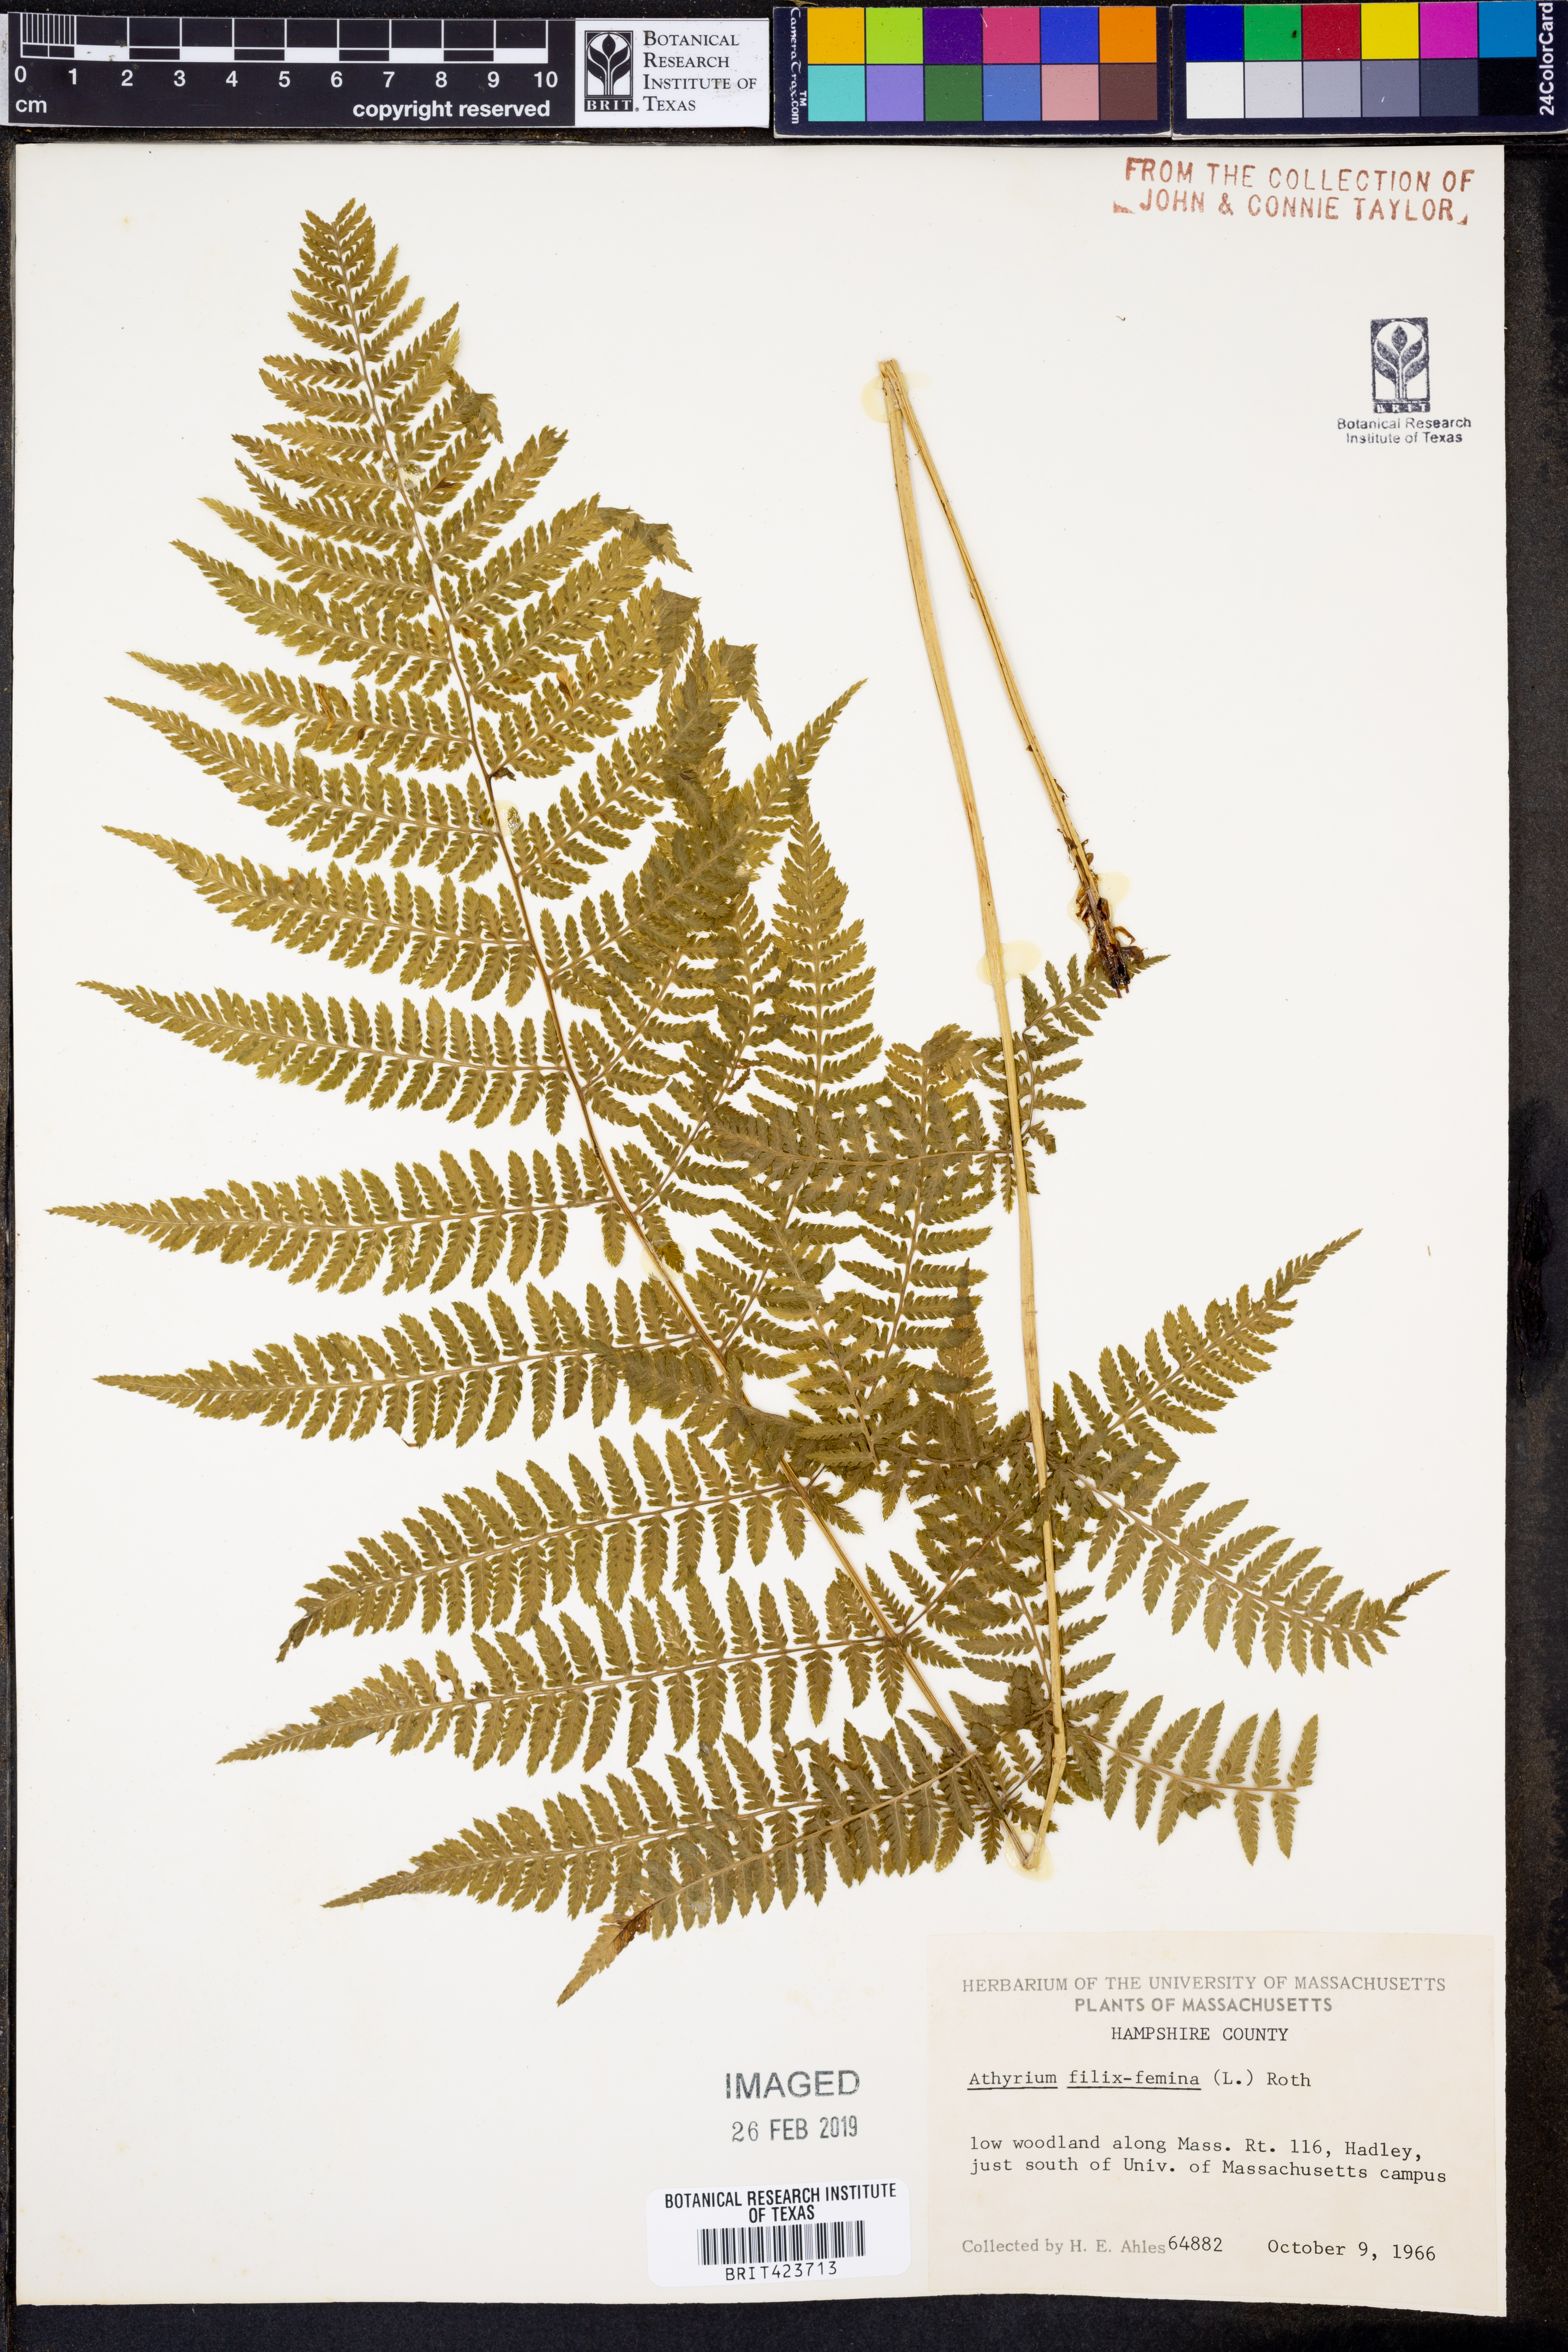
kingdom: Plantae
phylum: Tracheophyta
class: Polypodiopsida
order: Polypodiales
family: Athyriaceae
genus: Athyrium
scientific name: Athyrium filix-femina
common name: Lady fern
